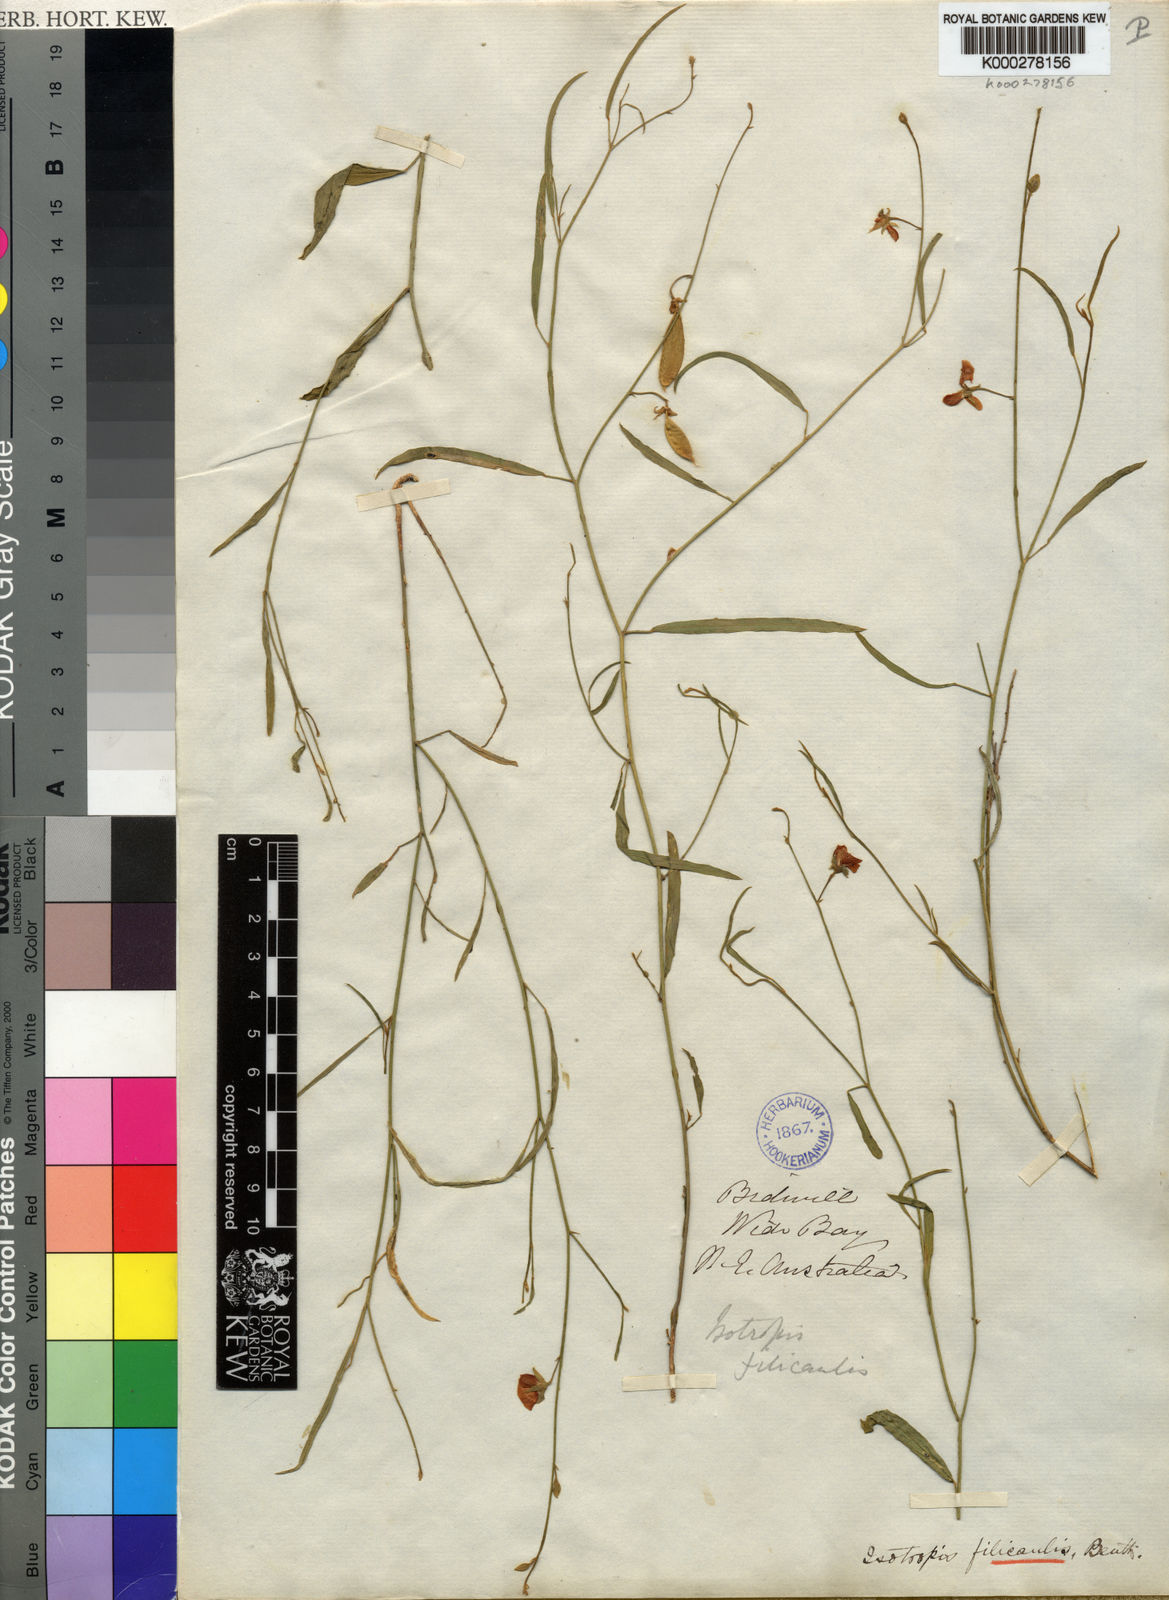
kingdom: Plantae
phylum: Tracheophyta
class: Magnoliopsida
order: Fabales
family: Fabaceae
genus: Isotropis
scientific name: Isotropis filicaulis
